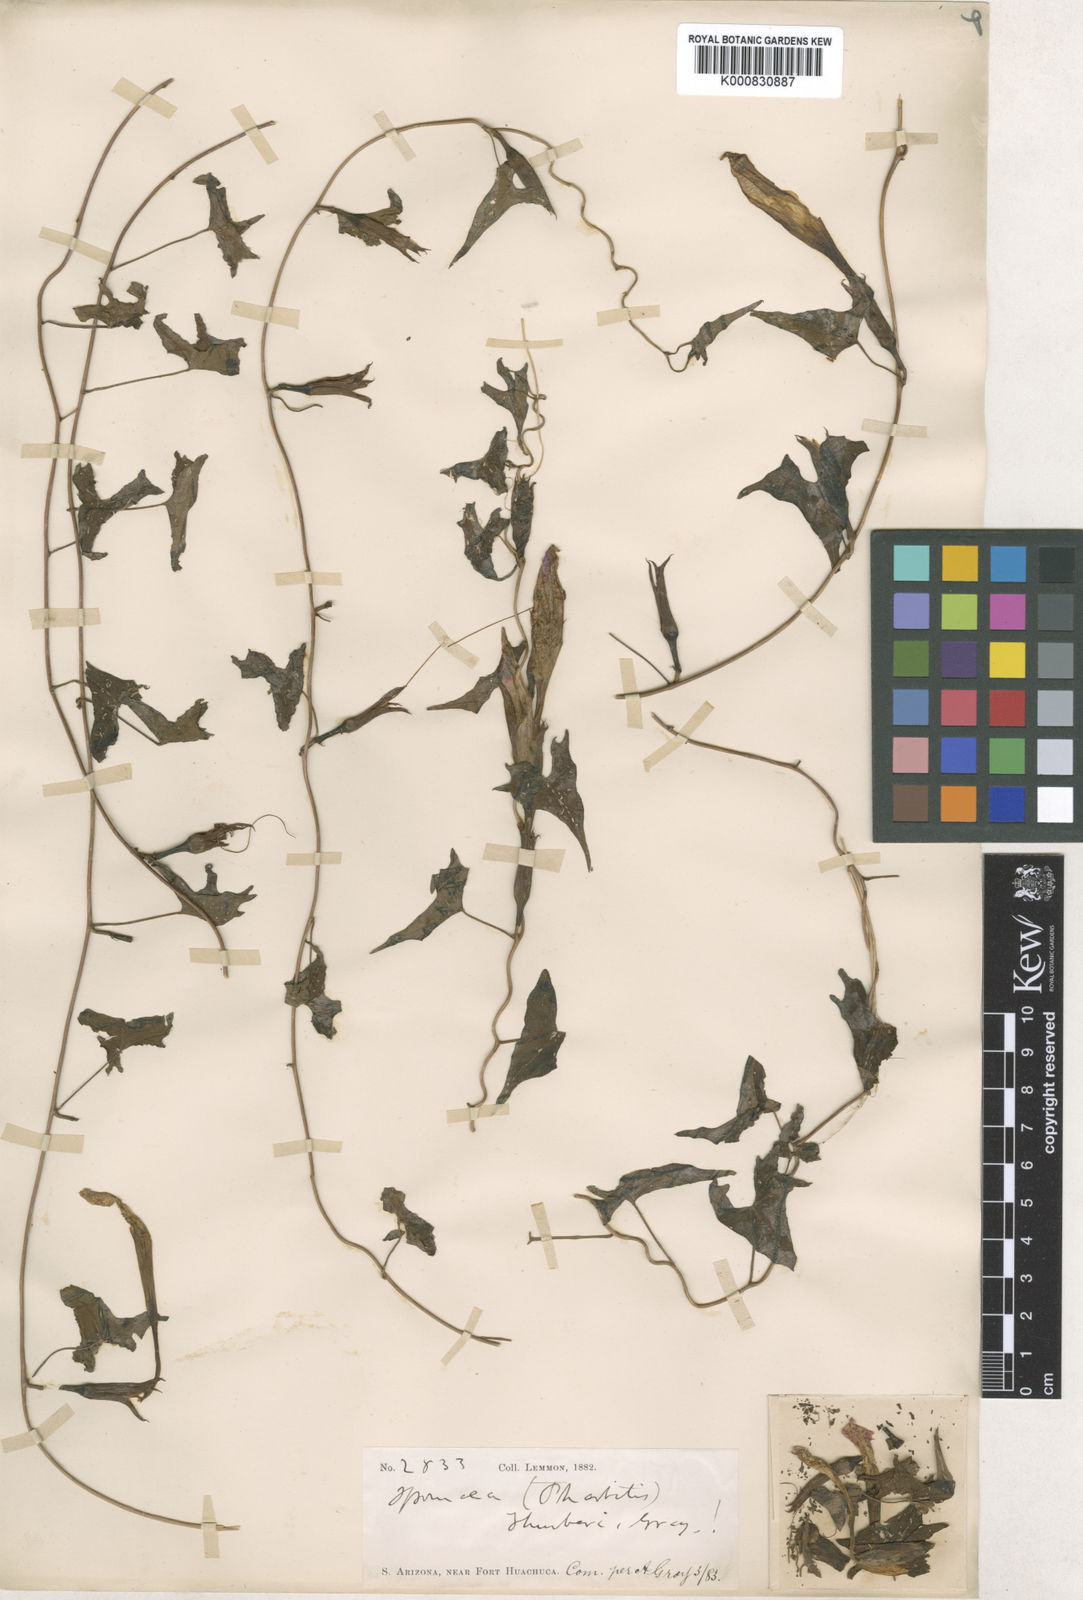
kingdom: Plantae
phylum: Tracheophyta
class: Magnoliopsida
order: Solanales
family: Convolvulaceae
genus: Ipomoea
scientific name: Ipomoea thurberi
